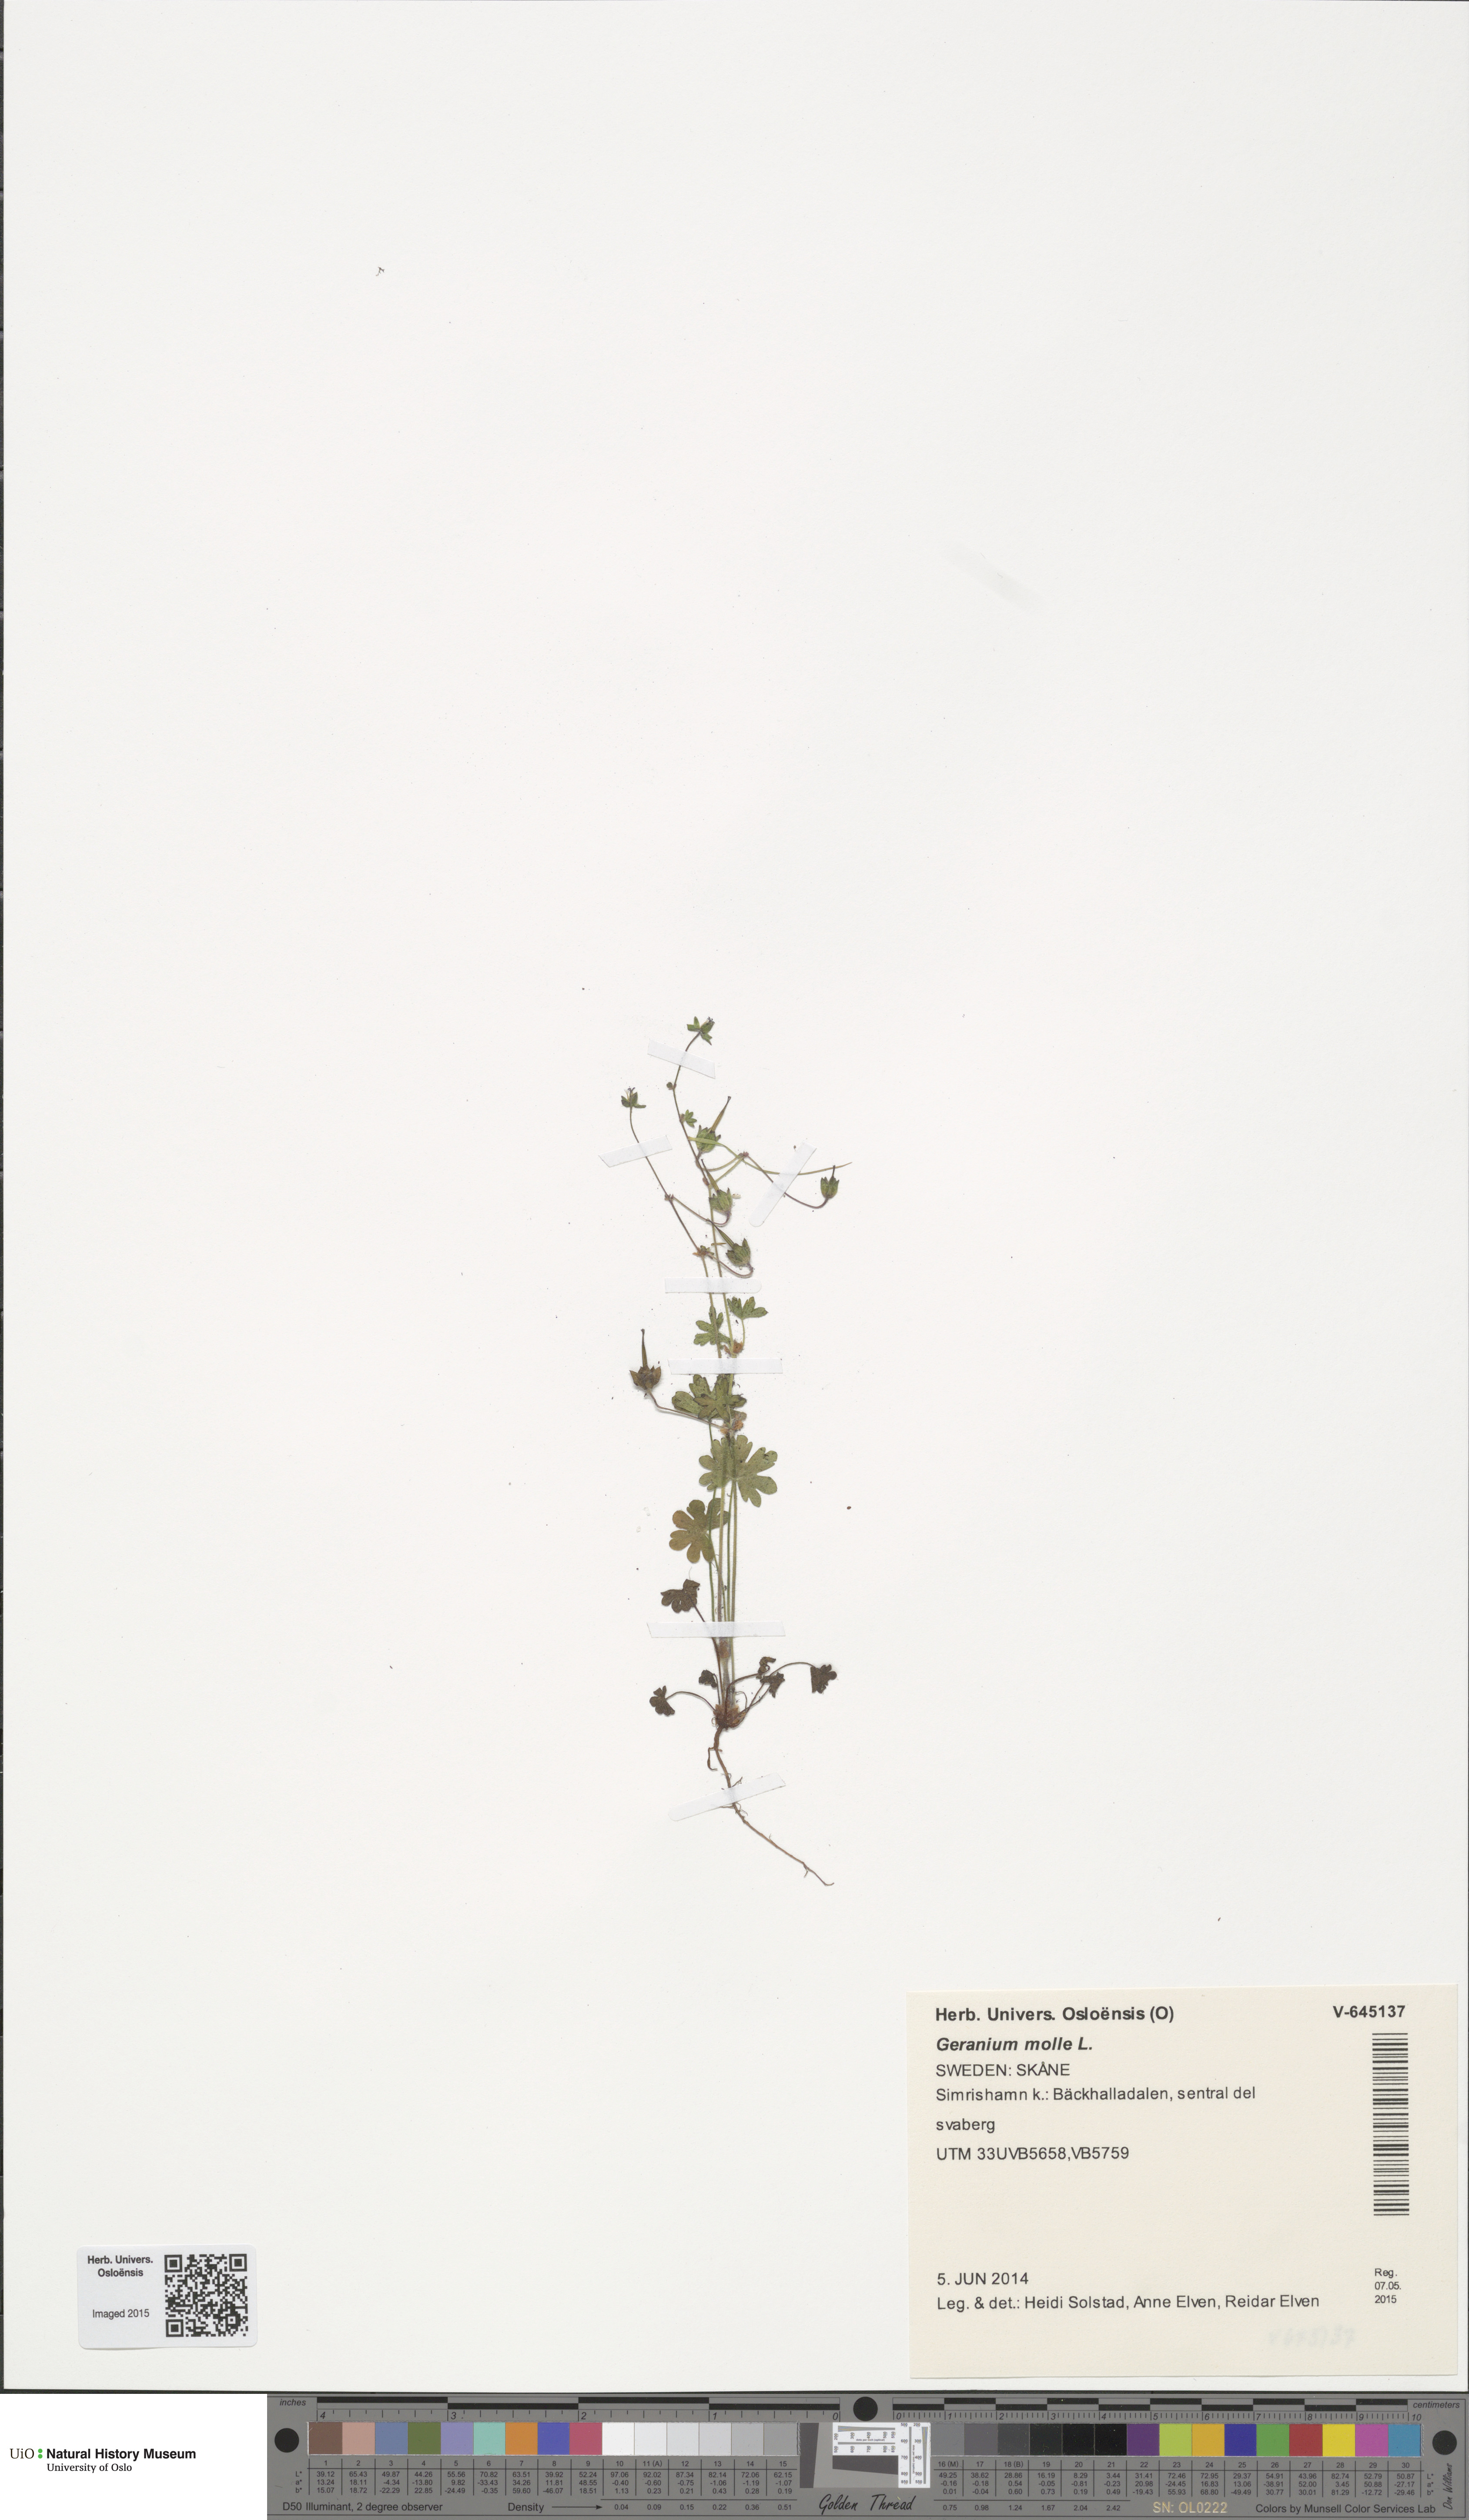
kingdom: Plantae
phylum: Tracheophyta
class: Magnoliopsida
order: Geraniales
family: Geraniaceae
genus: Geranium
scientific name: Geranium molle
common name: Dove's-foot crane's-bill
